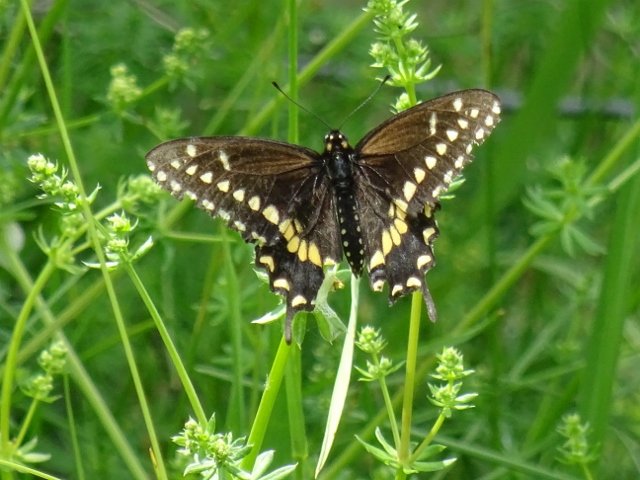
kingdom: Animalia
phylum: Arthropoda
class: Insecta
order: Lepidoptera
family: Papilionidae
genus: Papilio
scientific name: Papilio polyxenes
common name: Black Swallowtail
